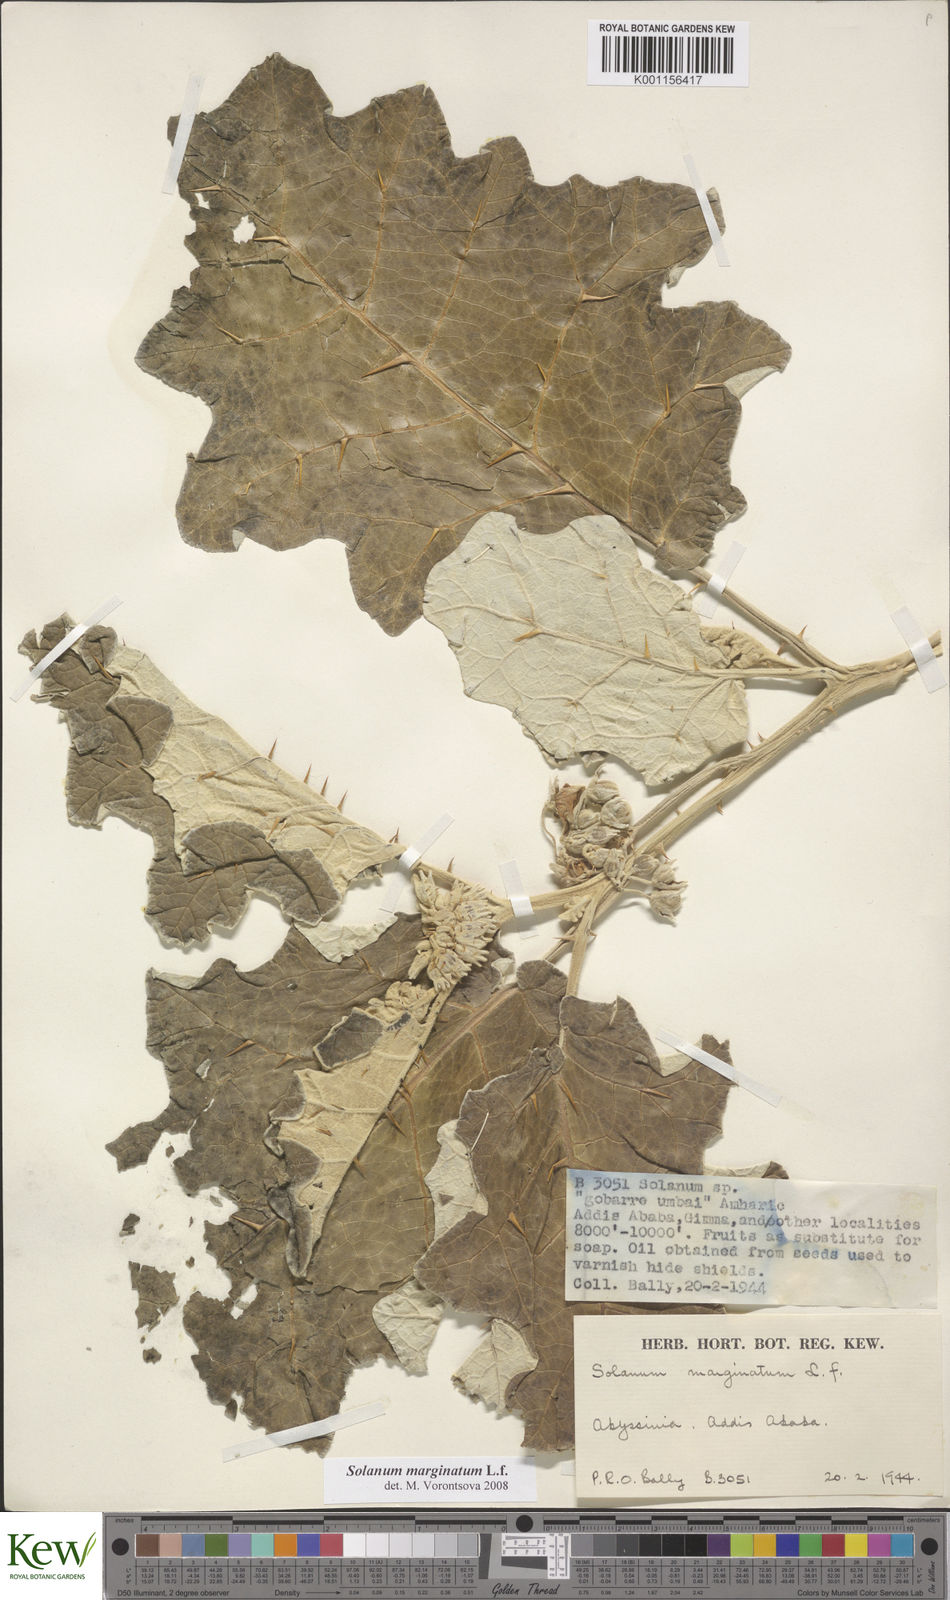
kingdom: Plantae
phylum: Tracheophyta
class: Magnoliopsida
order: Solanales
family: Solanaceae
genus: Solanum
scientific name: Solanum marginatum
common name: Purple african nightshade
